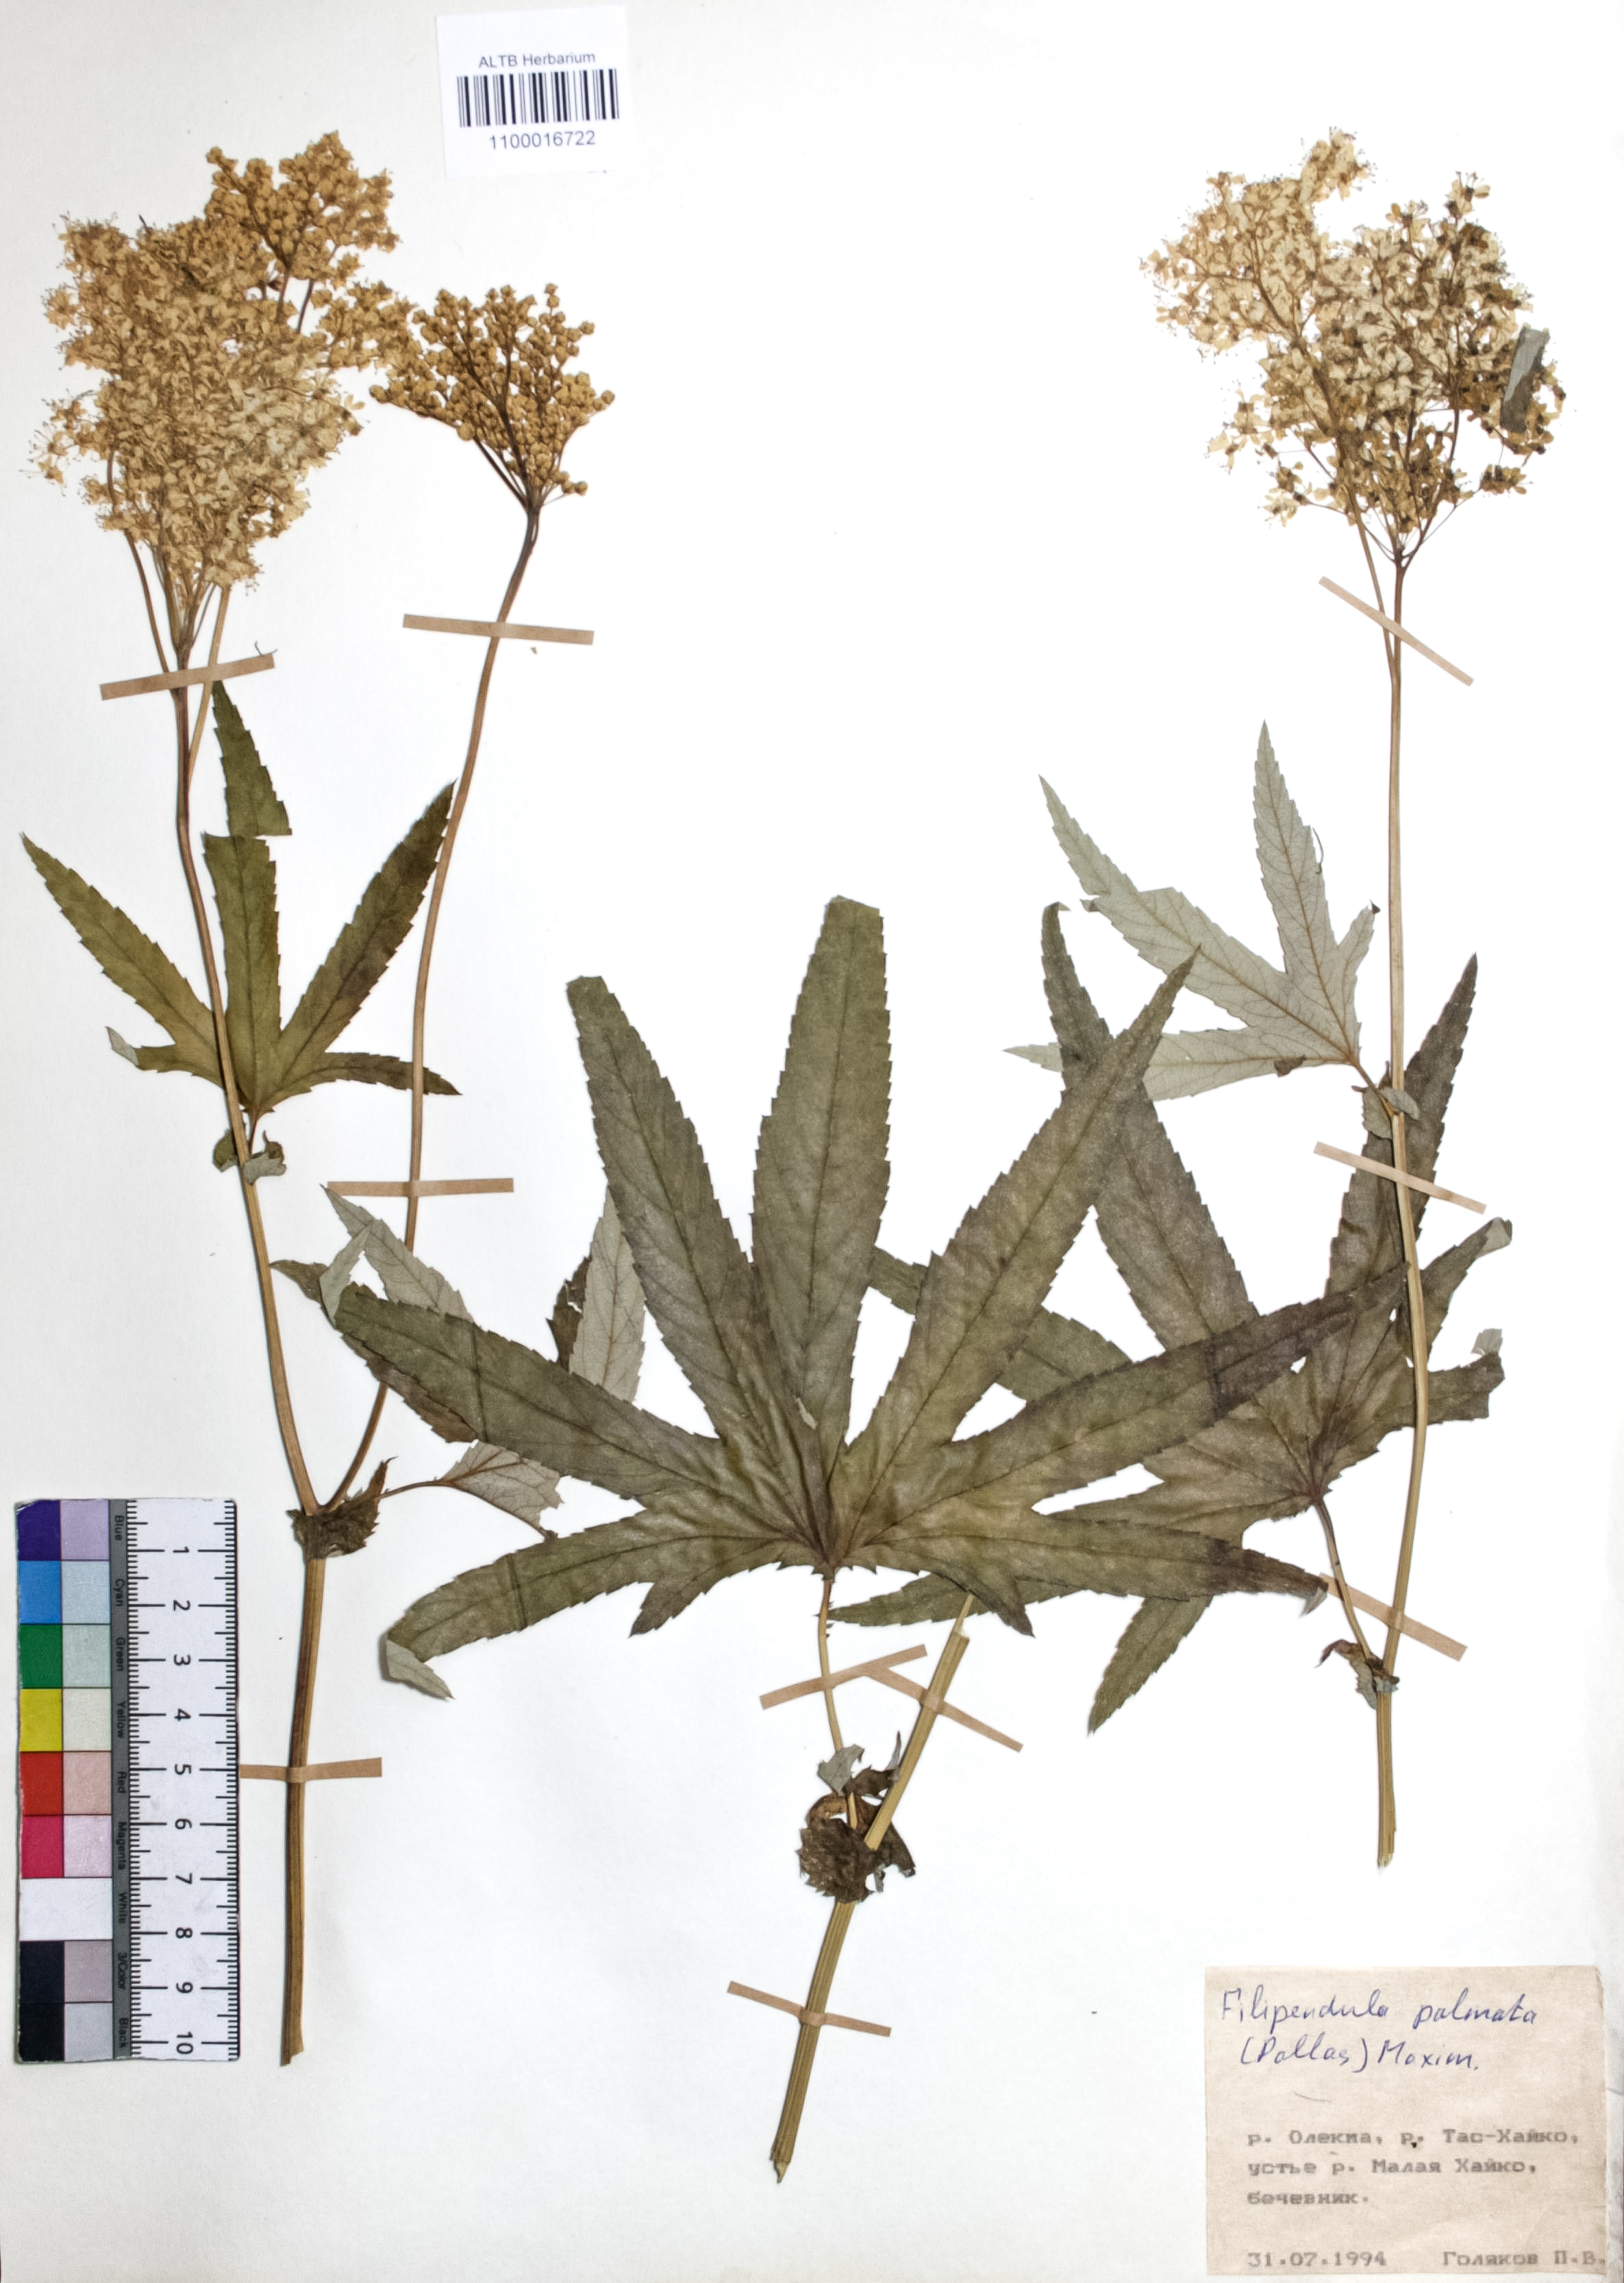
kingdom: Plantae
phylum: Tracheophyta
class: Magnoliopsida
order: Rosales
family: Rosaceae
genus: Filipendula
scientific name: Filipendula digitata
